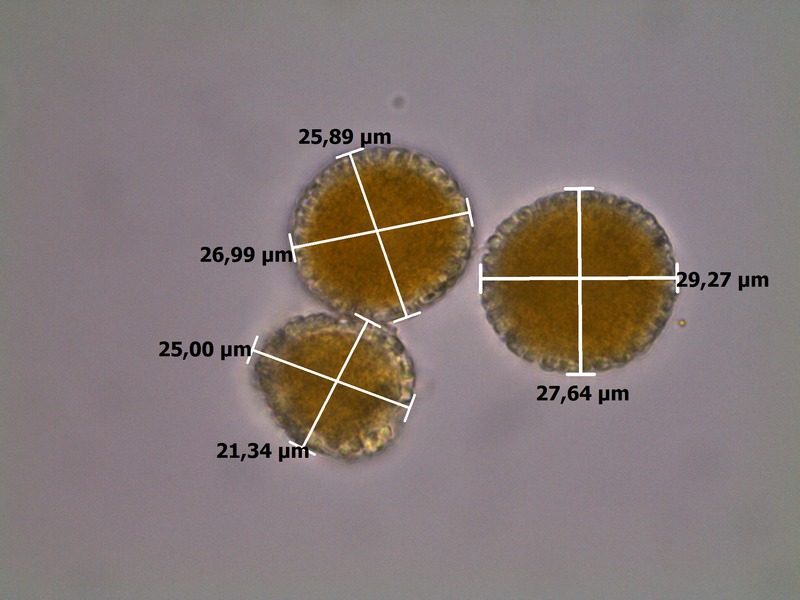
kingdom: Fungi
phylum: Basidiomycota
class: Pucciniomycetes
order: Pucciniales
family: Coleosporiaceae
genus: Coleosporium
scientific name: Coleosporium tussilaginis
